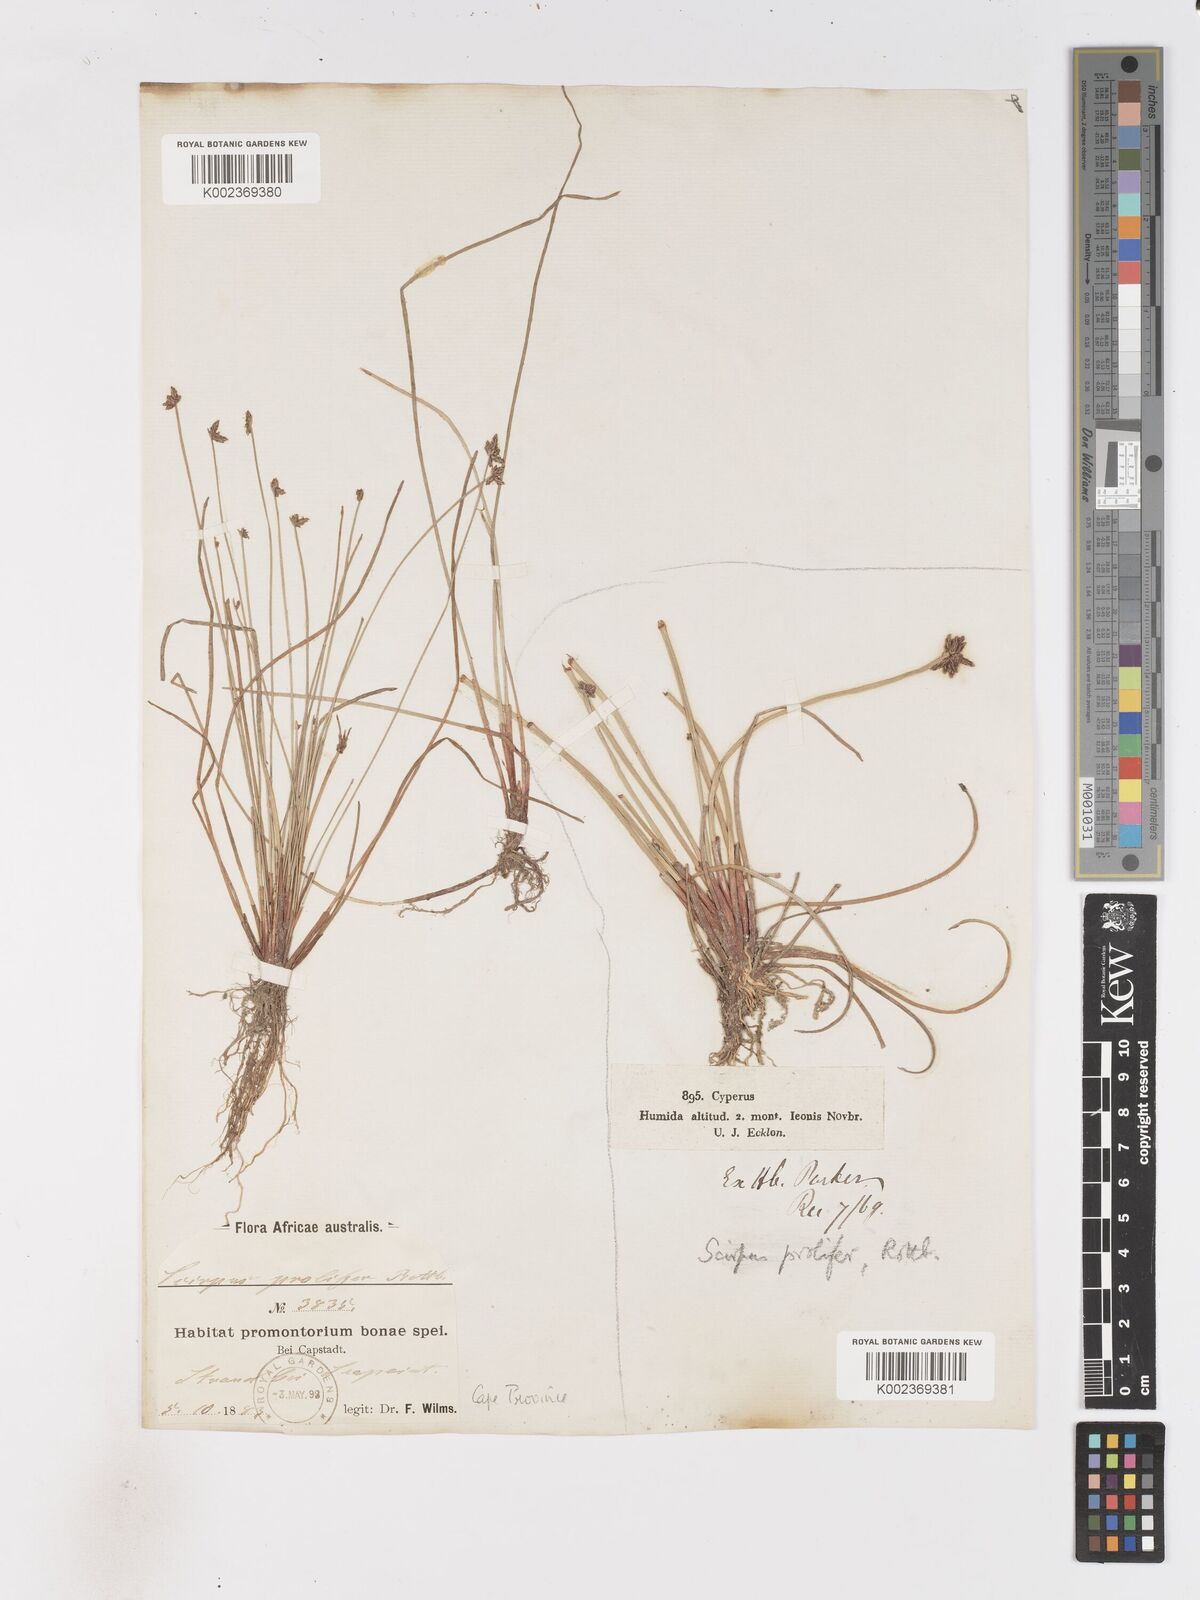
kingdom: Plantae
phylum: Tracheophyta
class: Liliopsida
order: Poales
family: Cyperaceae
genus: Isolepis
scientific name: Isolepis prolifera
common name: Proliferating bulrush
